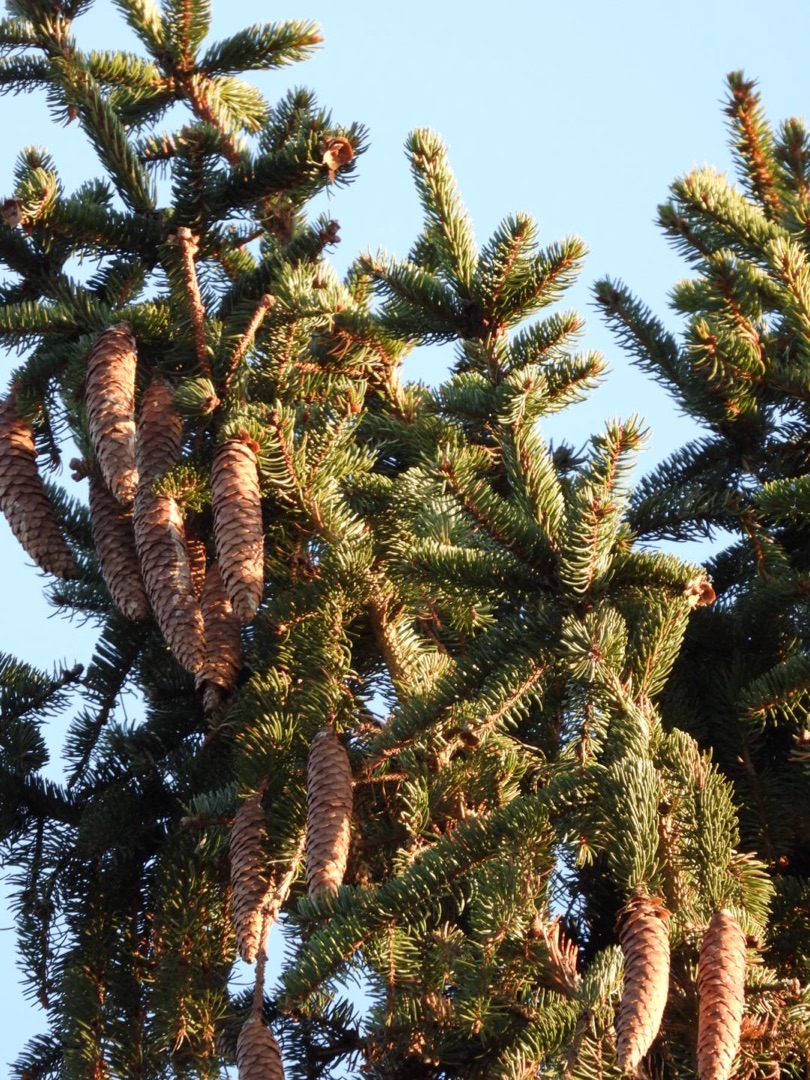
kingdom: Plantae
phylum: Tracheophyta
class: Pinopsida
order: Pinales
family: Pinaceae
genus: Picea
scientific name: Picea abies
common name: Rød-gran
